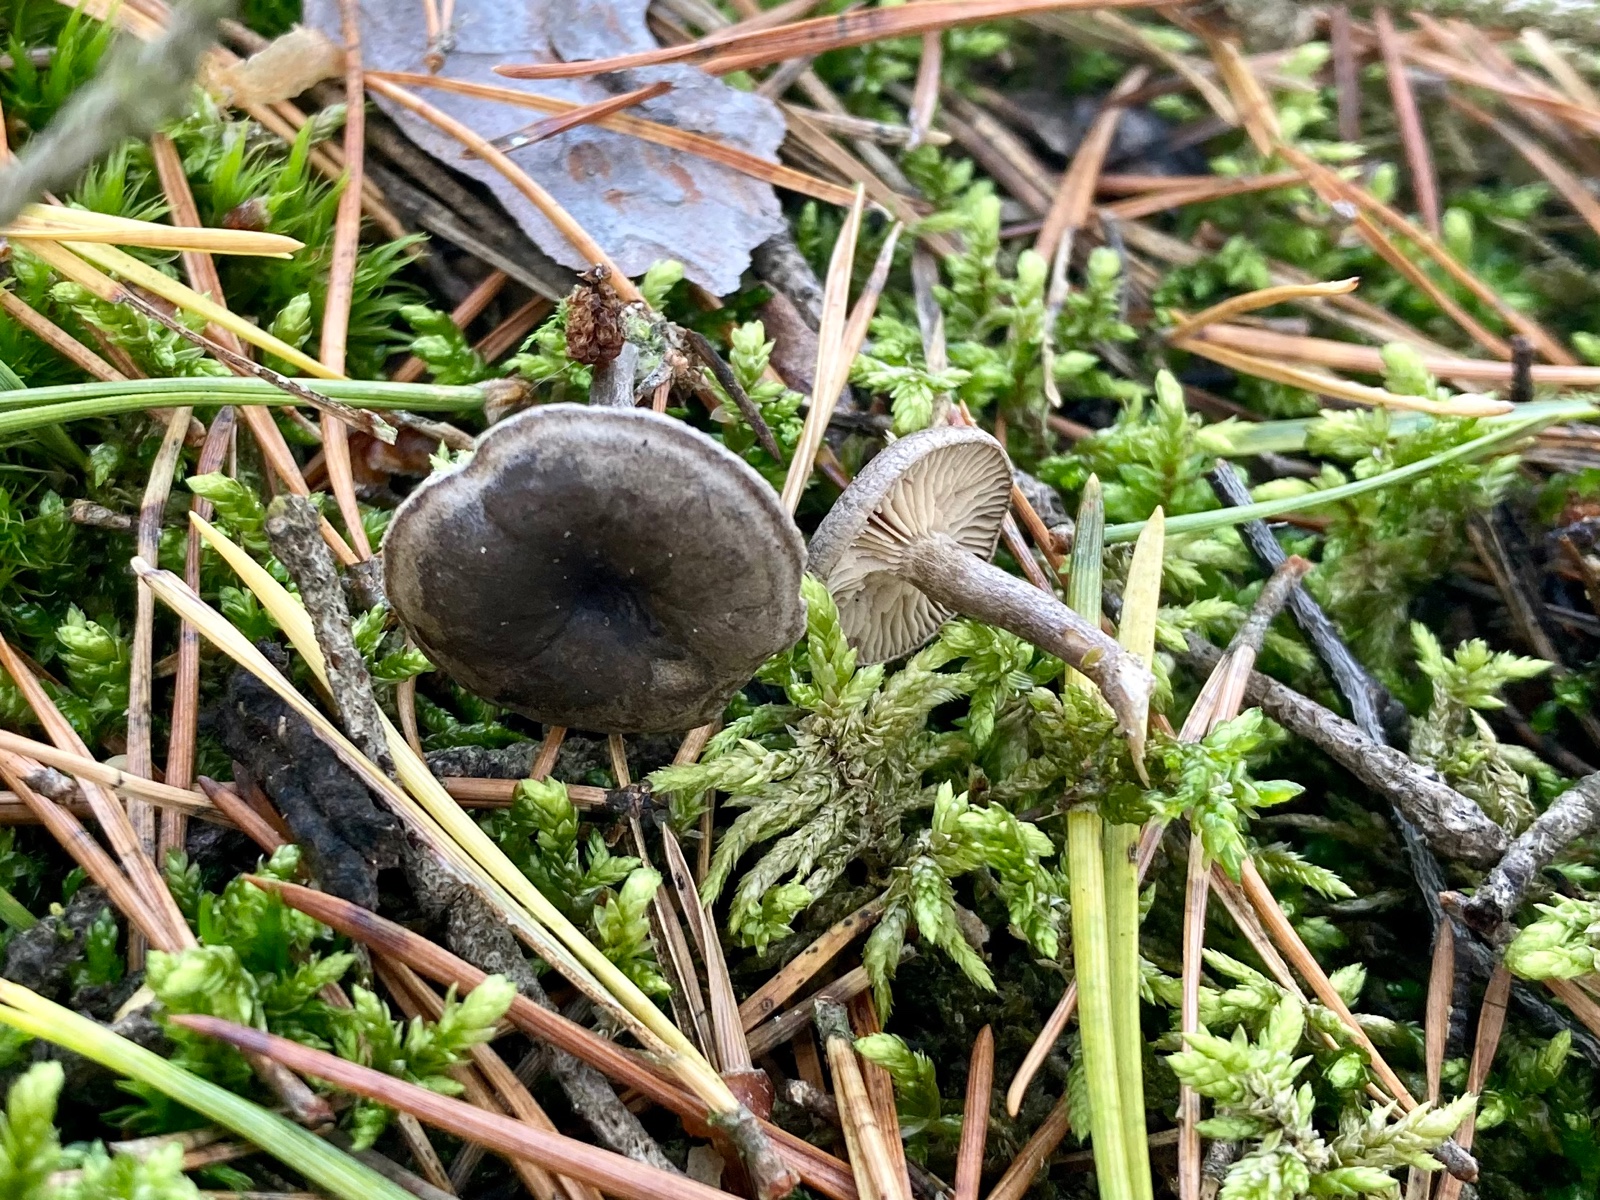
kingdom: Fungi
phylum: Basidiomycota
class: Agaricomycetes
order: Agaricales
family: Entolomataceae
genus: Clitopilus
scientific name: Clitopilus caelatus
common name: gråbrun troldhat
